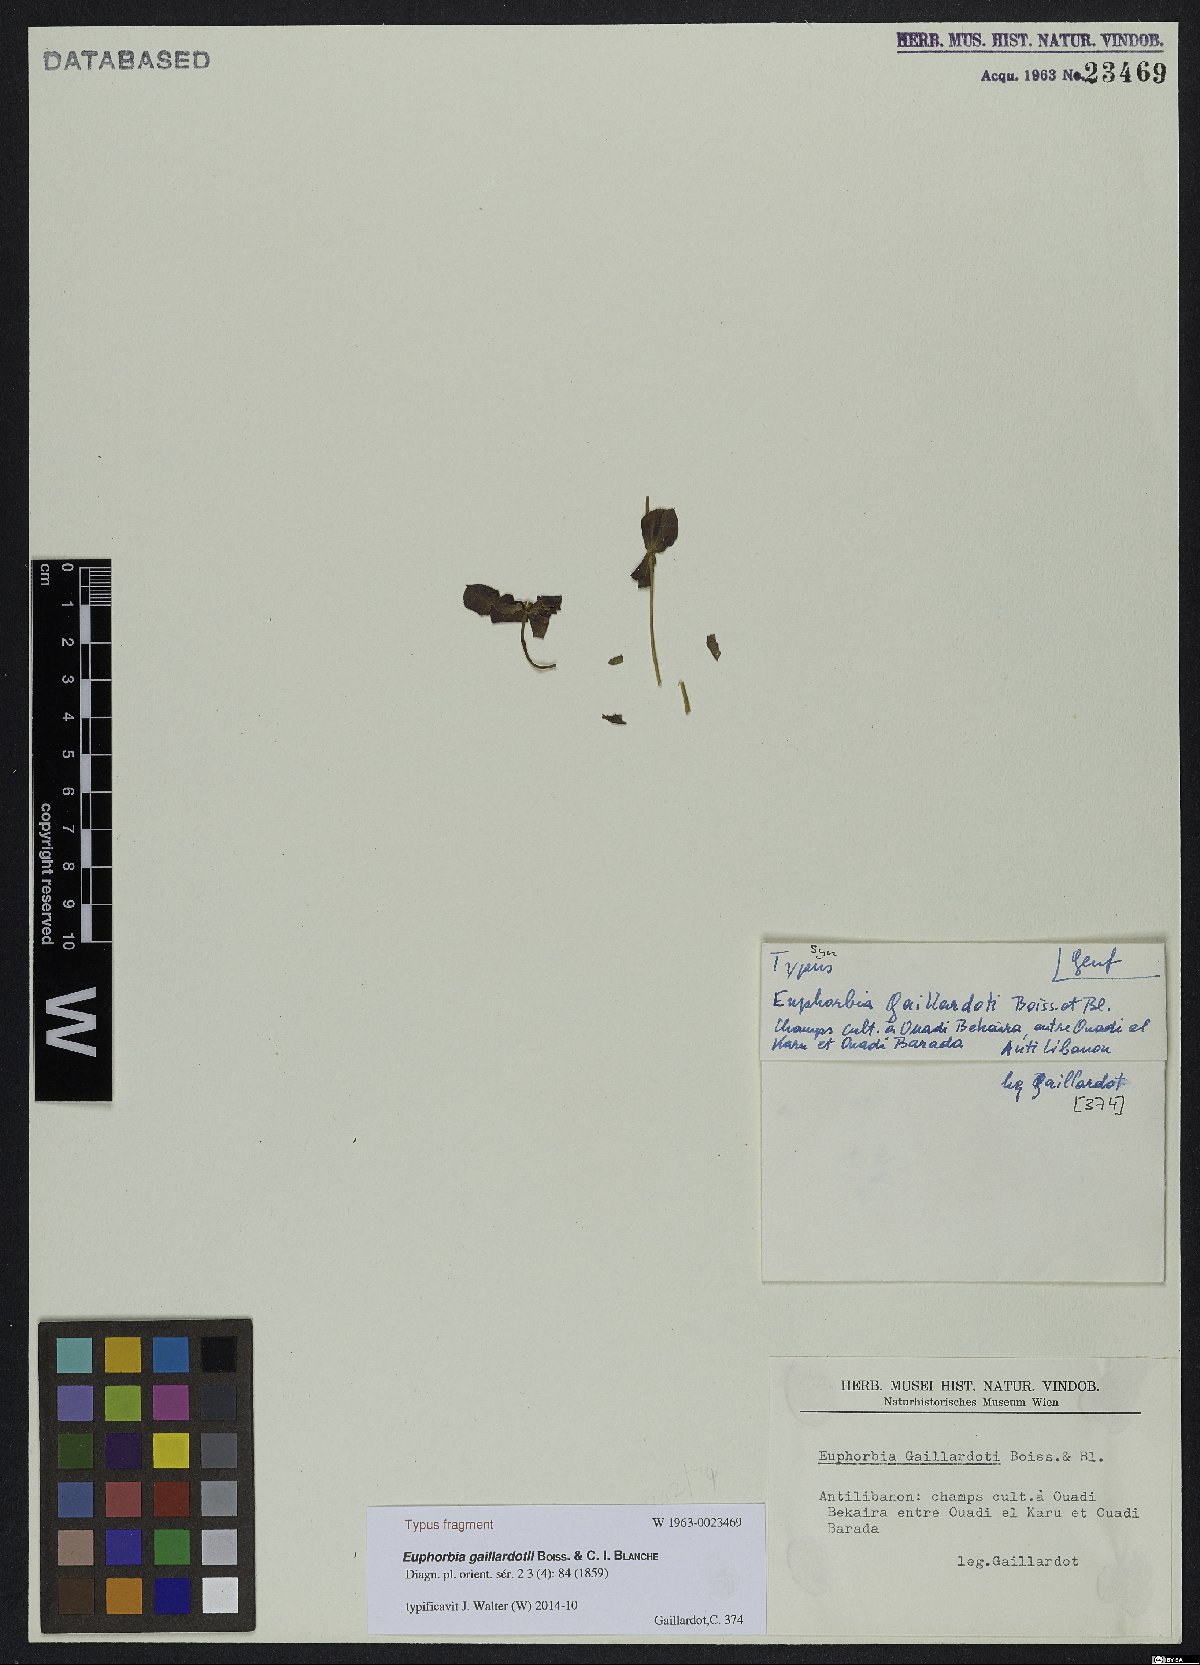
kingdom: Plantae
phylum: Tracheophyta
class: Magnoliopsida
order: Malpighiales
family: Euphorbiaceae
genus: Euphorbia
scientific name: Euphorbia gaillardotii
